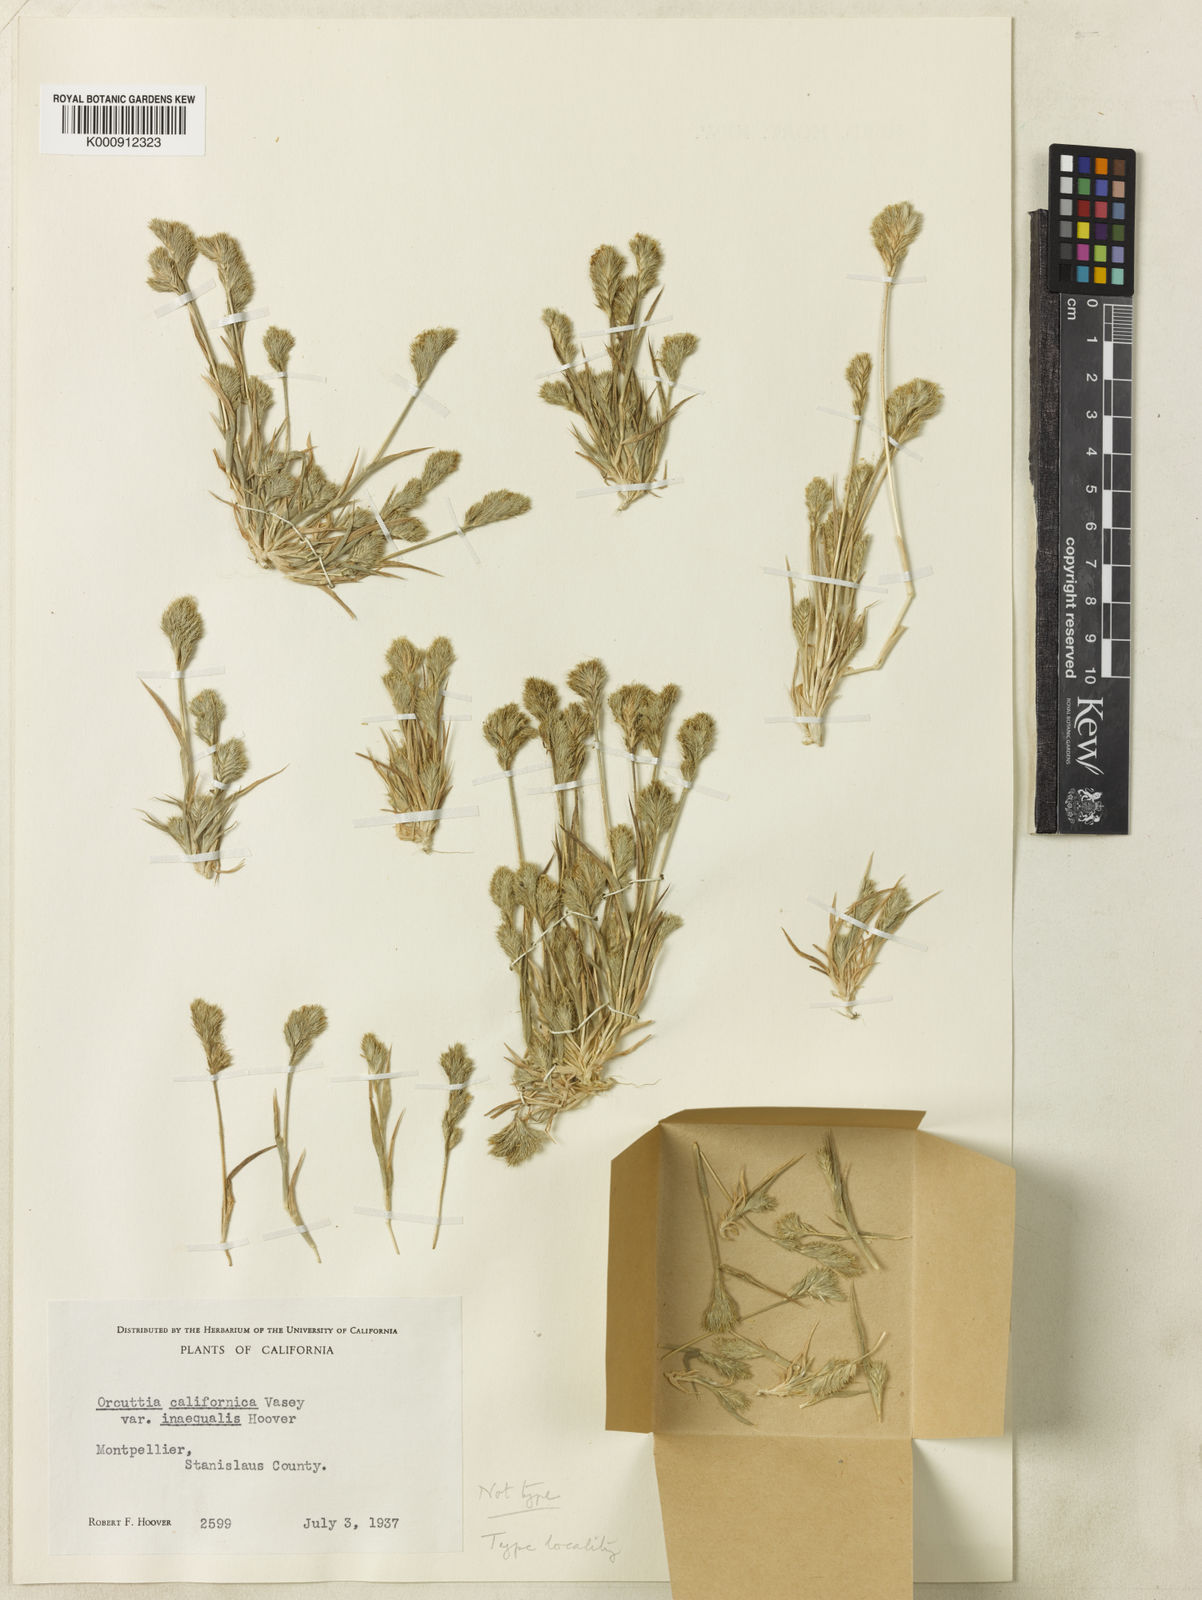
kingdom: Plantae
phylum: Tracheophyta
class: Liliopsida
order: Poales
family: Poaceae
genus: Orcuttia
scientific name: Orcuttia inaequalis
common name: San joaquin valley orcutt grass
